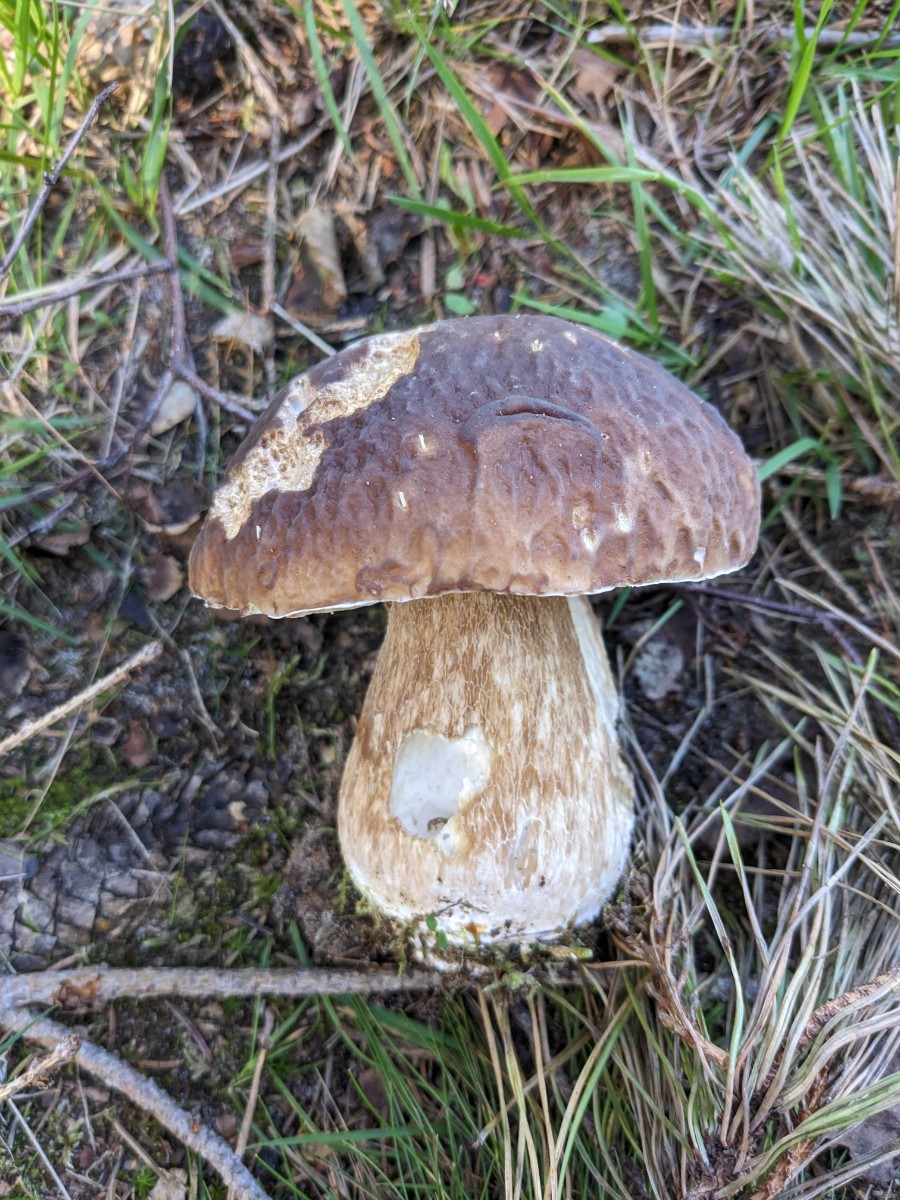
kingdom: Fungi
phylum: Basidiomycota
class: Agaricomycetes
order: Boletales
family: Boletaceae
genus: Boletus
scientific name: Boletus pinophilus
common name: rødbrun rørhat
